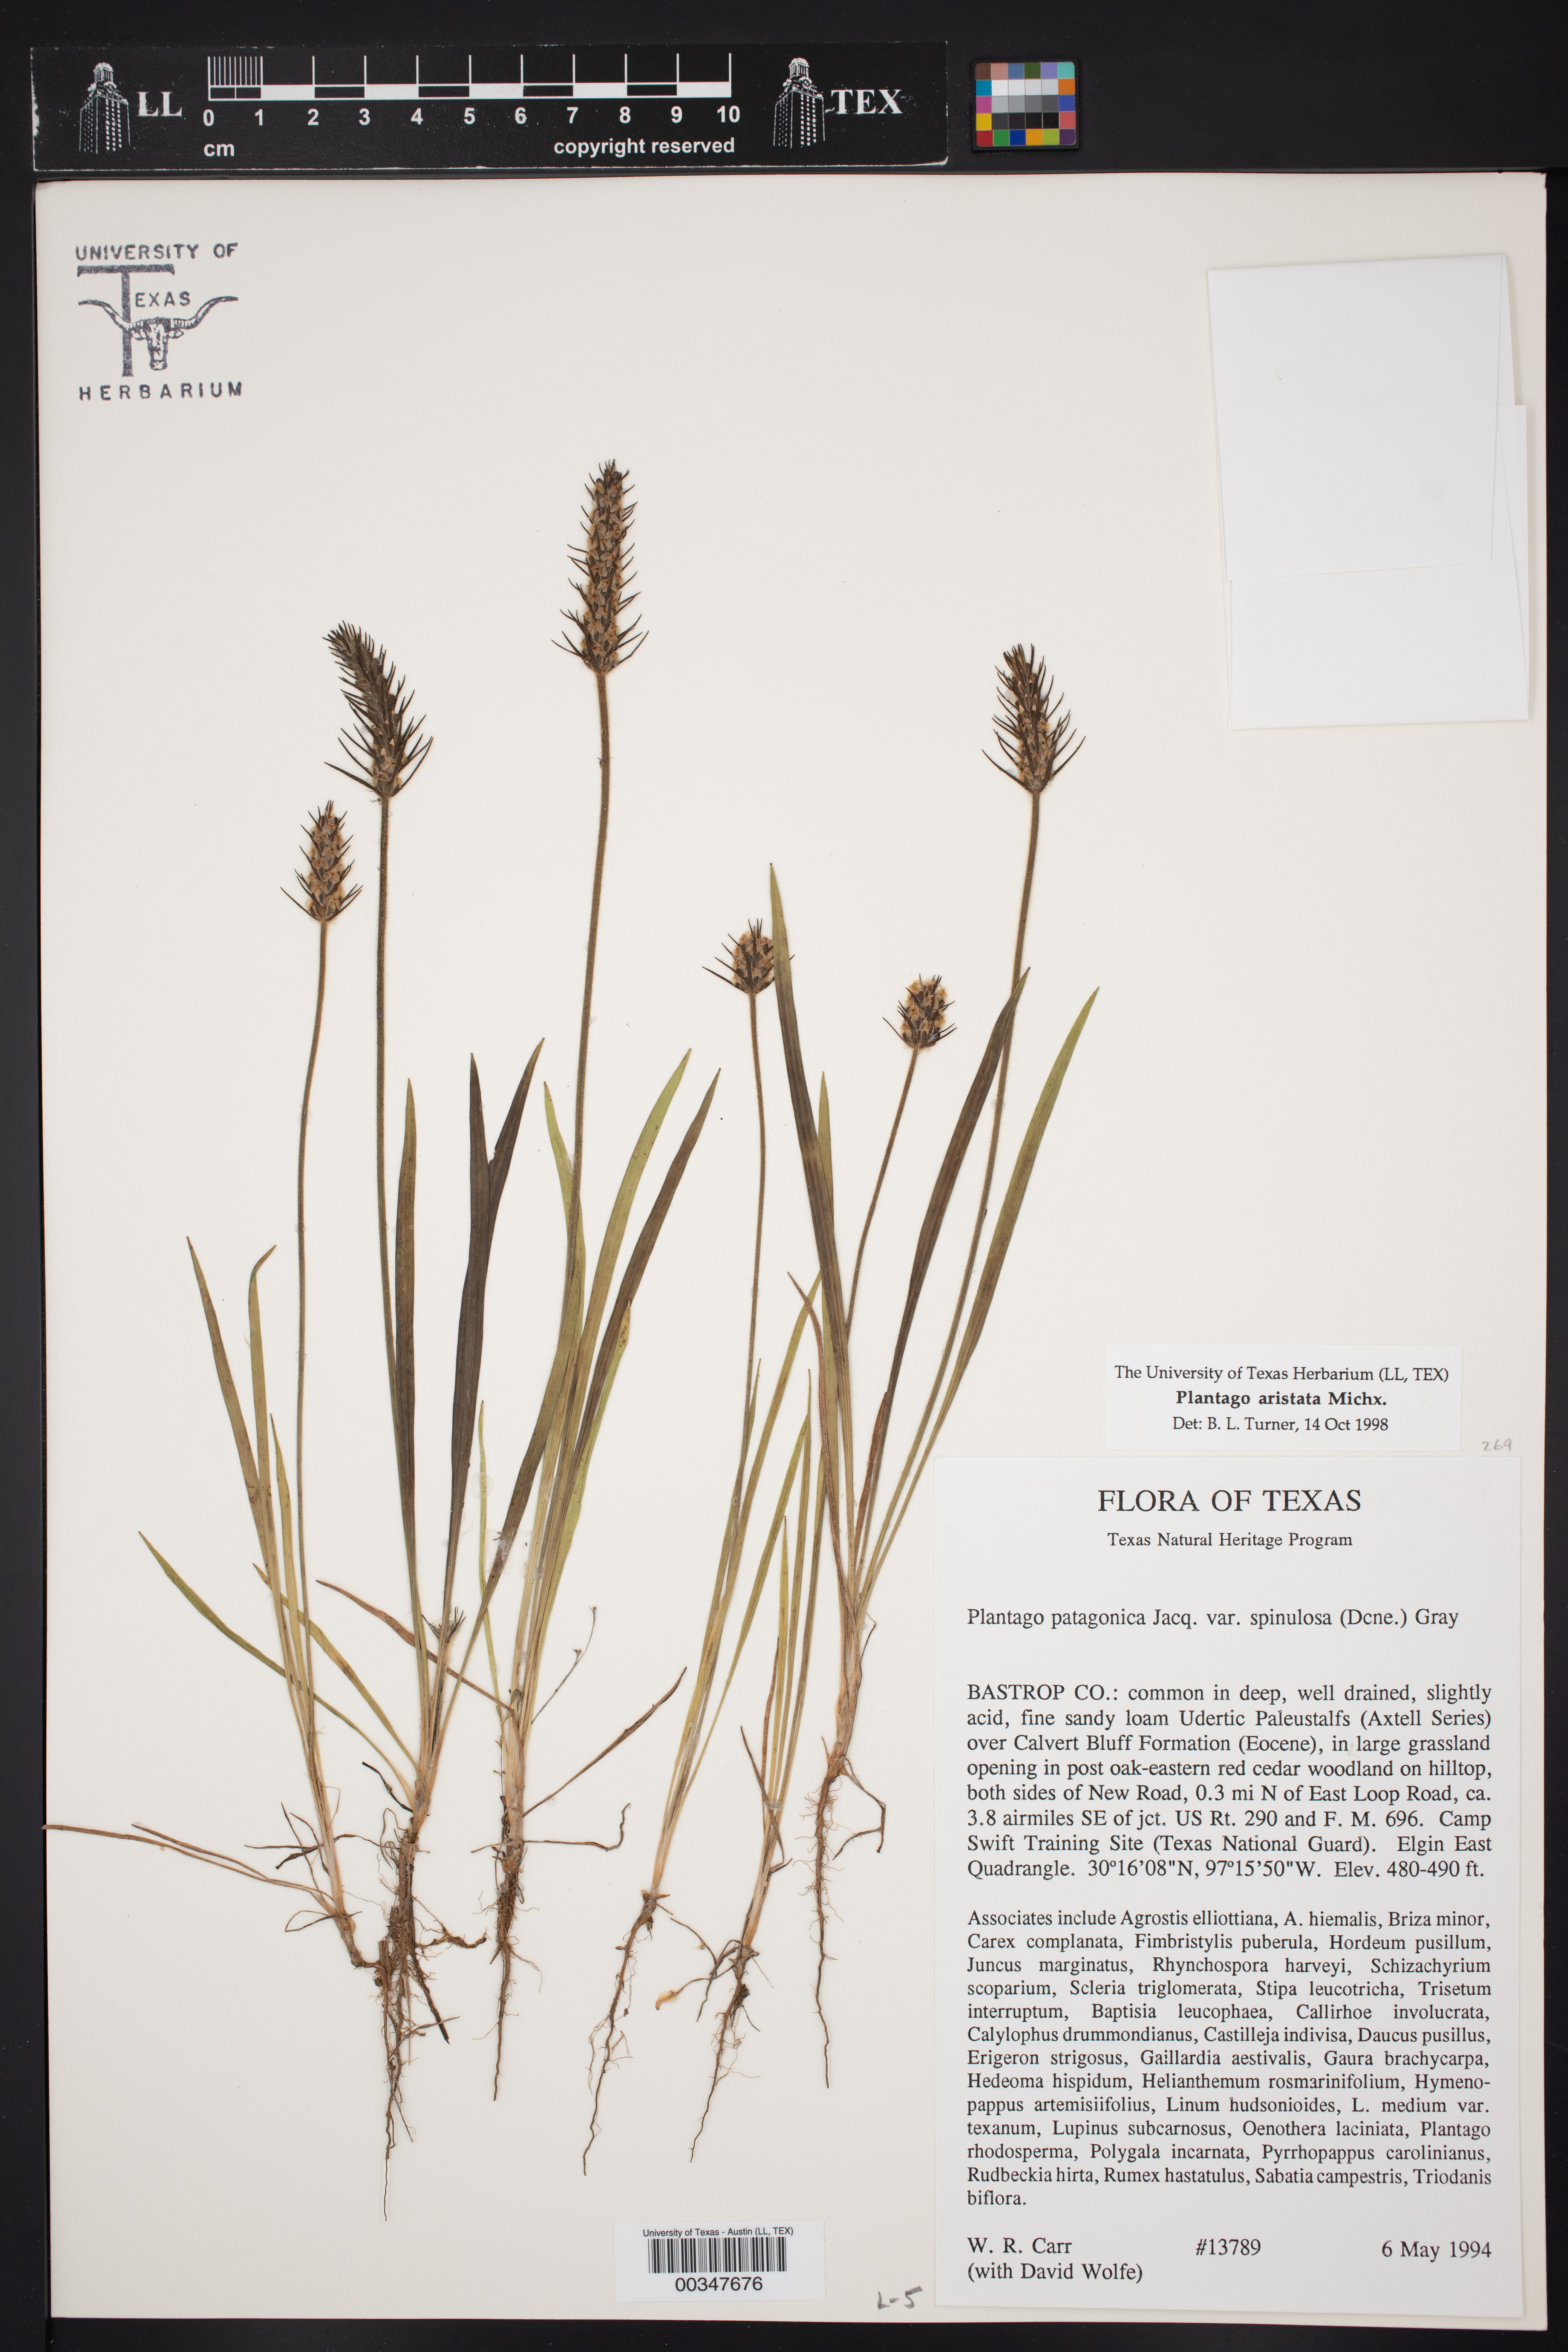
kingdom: Plantae
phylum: Tracheophyta
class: Magnoliopsida
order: Lamiales
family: Plantaginaceae
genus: Plantago
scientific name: Plantago aristata
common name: Bracted plantain
